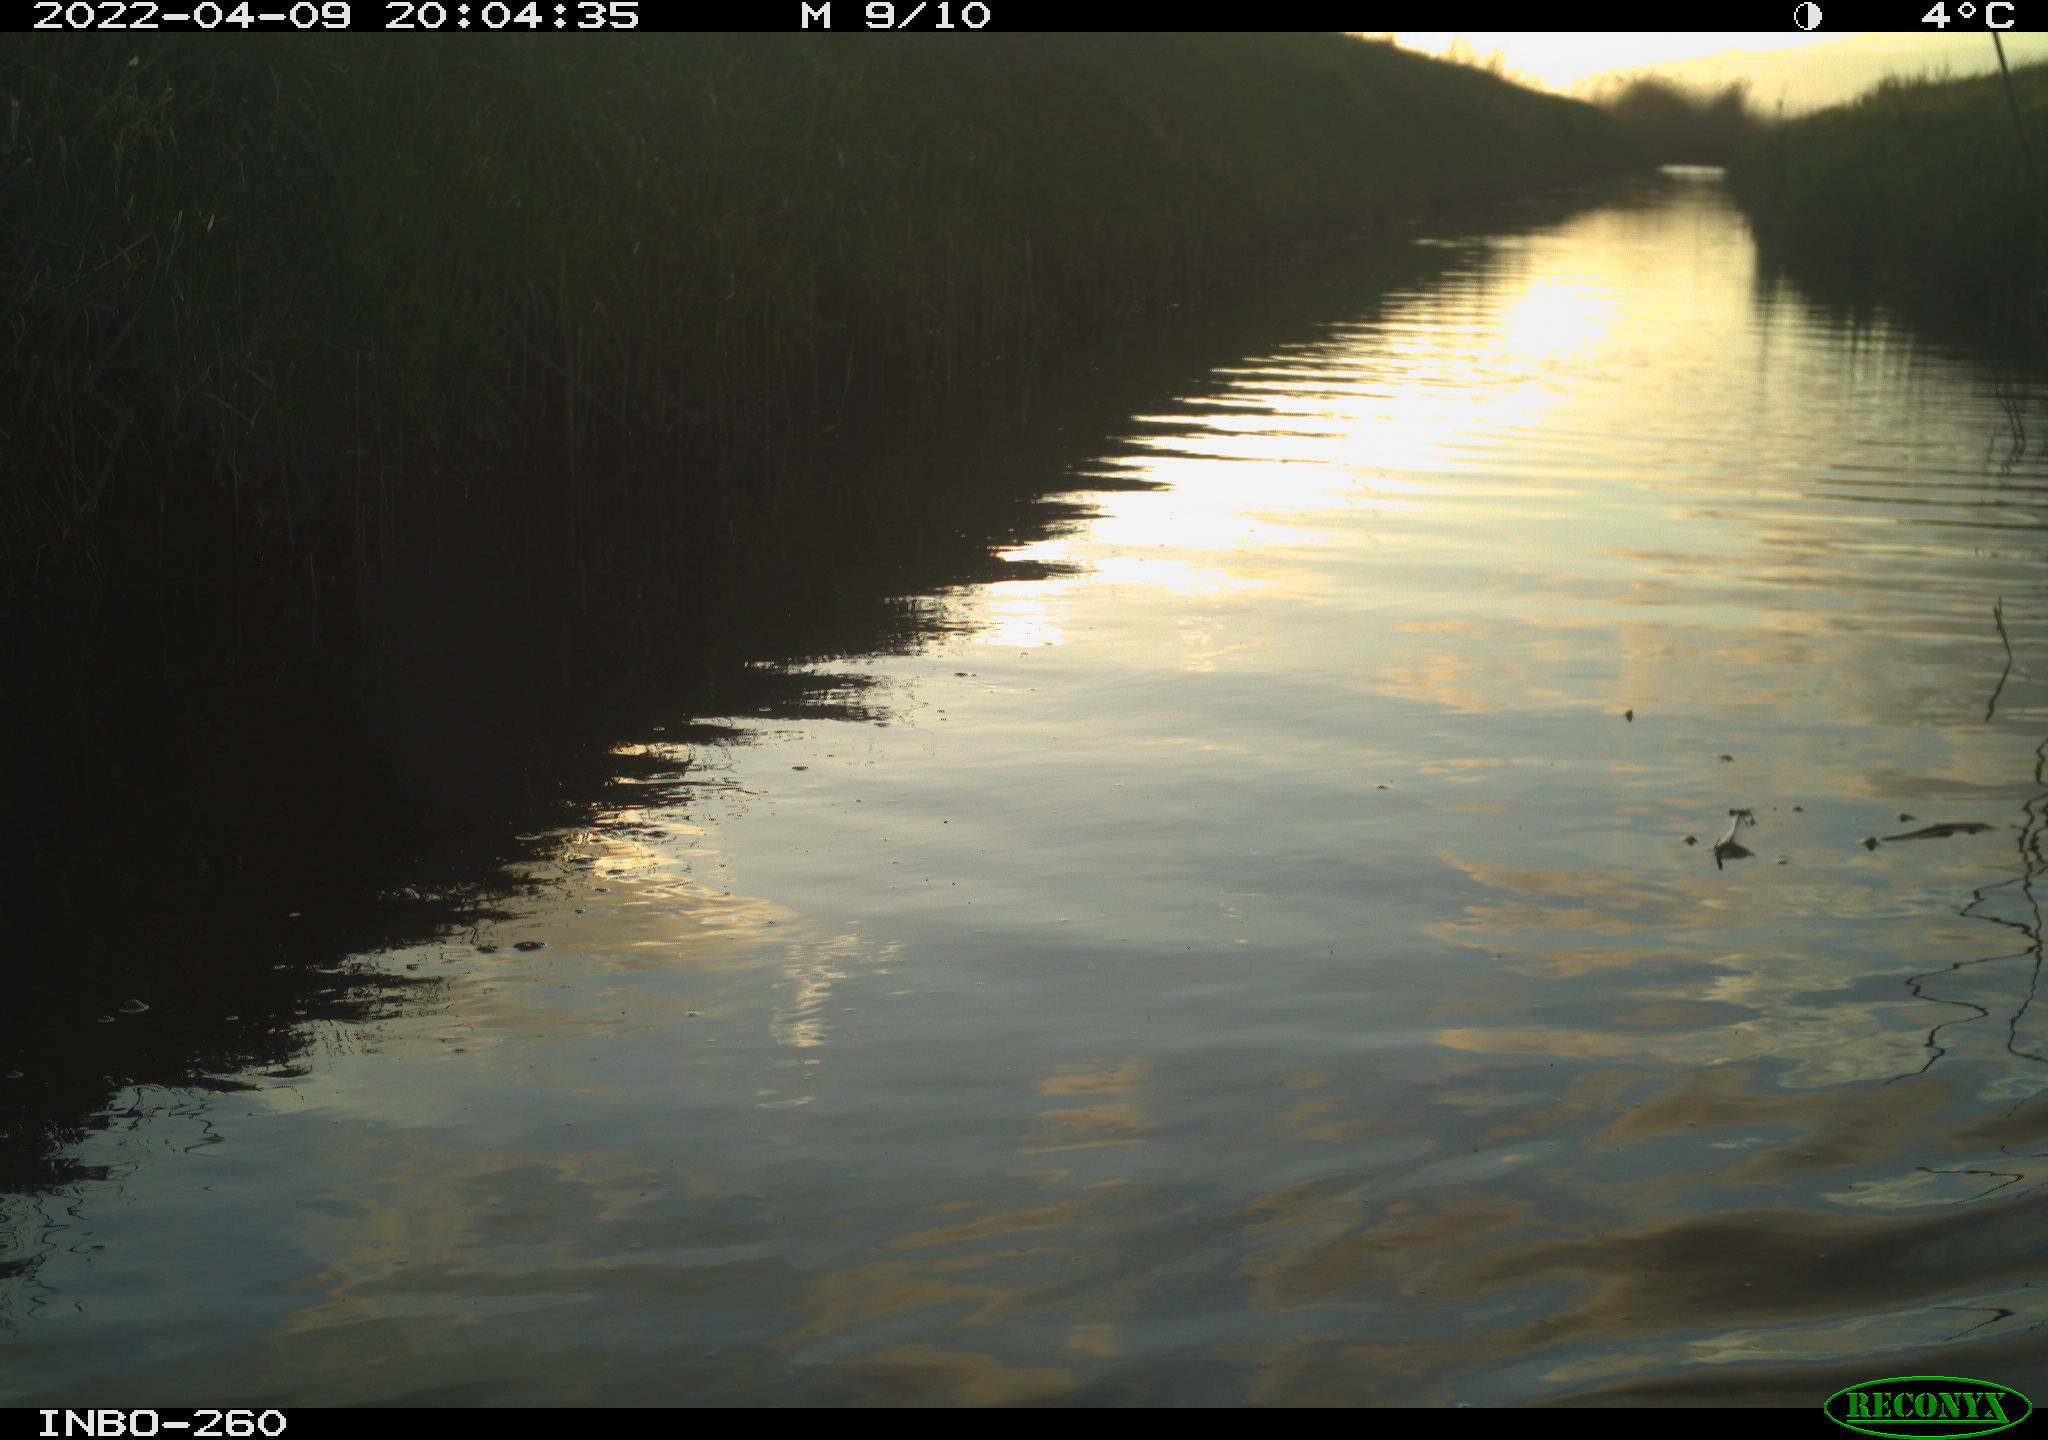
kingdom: Animalia
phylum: Chordata
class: Aves
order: Gruiformes
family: Rallidae
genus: Fulica
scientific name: Fulica atra
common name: Eurasian coot
